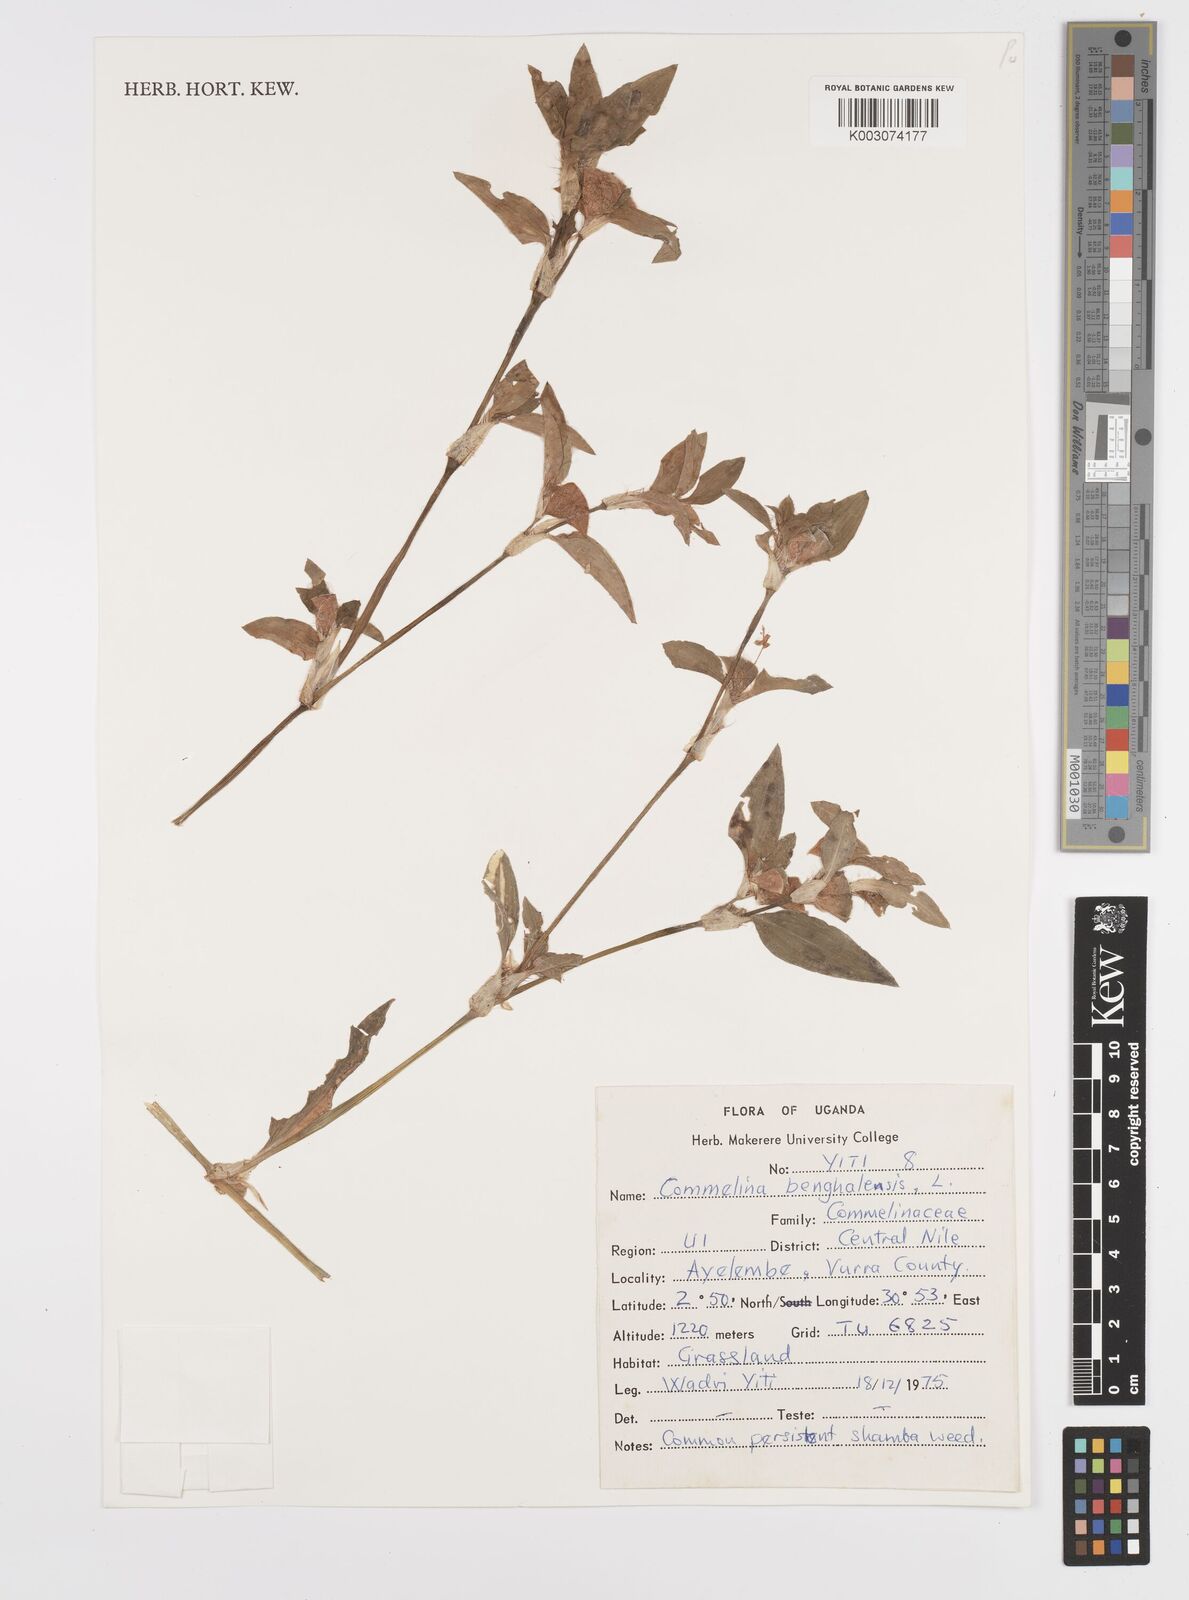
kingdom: Plantae
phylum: Tracheophyta
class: Liliopsida
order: Commelinales
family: Commelinaceae
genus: Commelina
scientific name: Commelina benghalensis
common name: Jio
